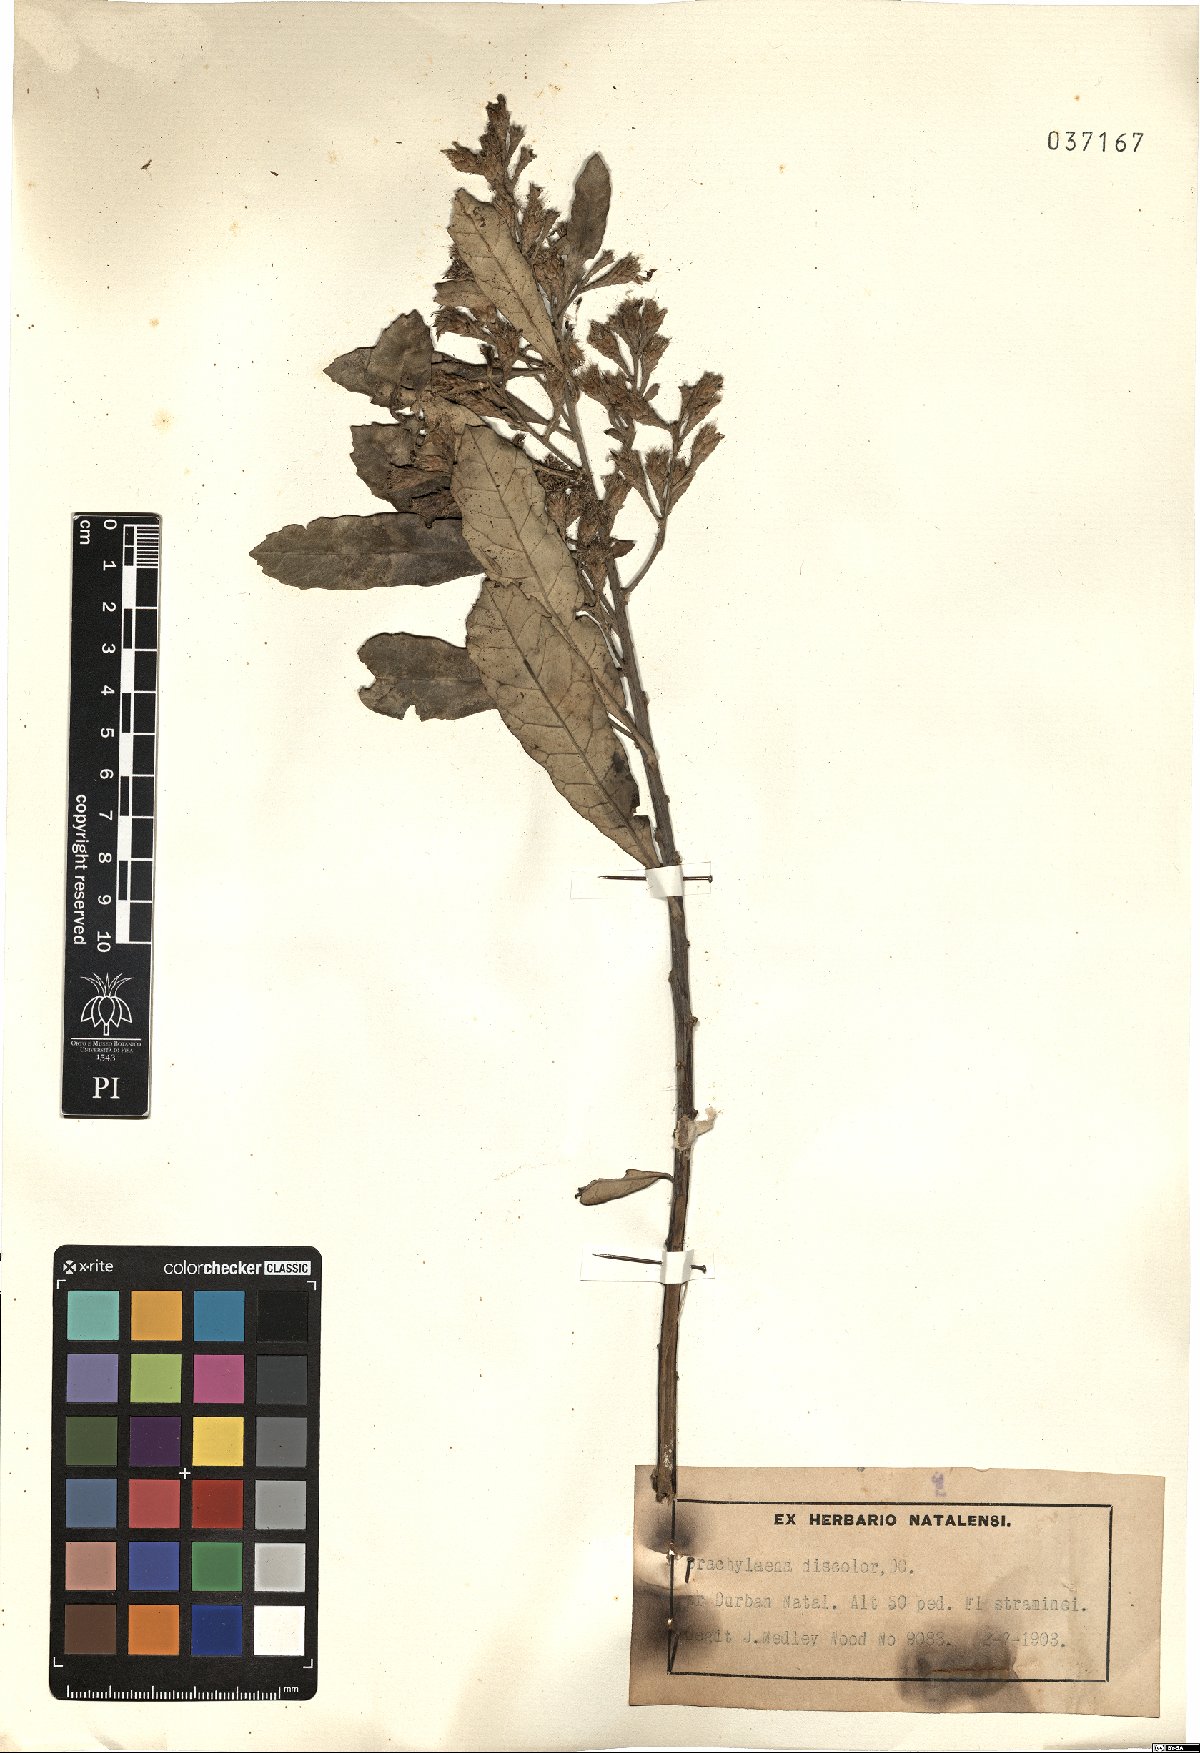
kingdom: Plantae
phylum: Tracheophyta
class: Magnoliopsida
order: Asterales
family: Asteraceae
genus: Brachylaena
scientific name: Brachylaena discolor
